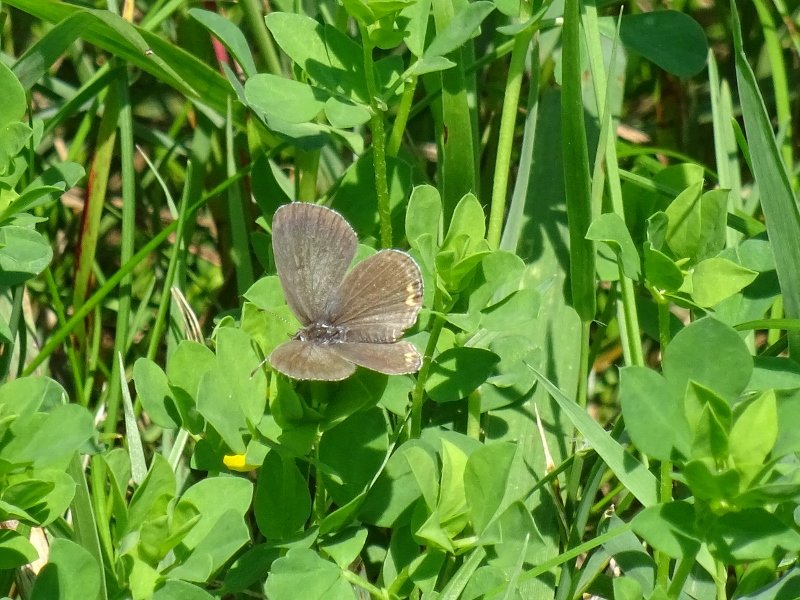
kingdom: Animalia
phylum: Arthropoda
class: Insecta
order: Lepidoptera
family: Lycaenidae
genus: Elkalyce
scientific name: Elkalyce comyntas
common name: Eastern Tailed-Blue
